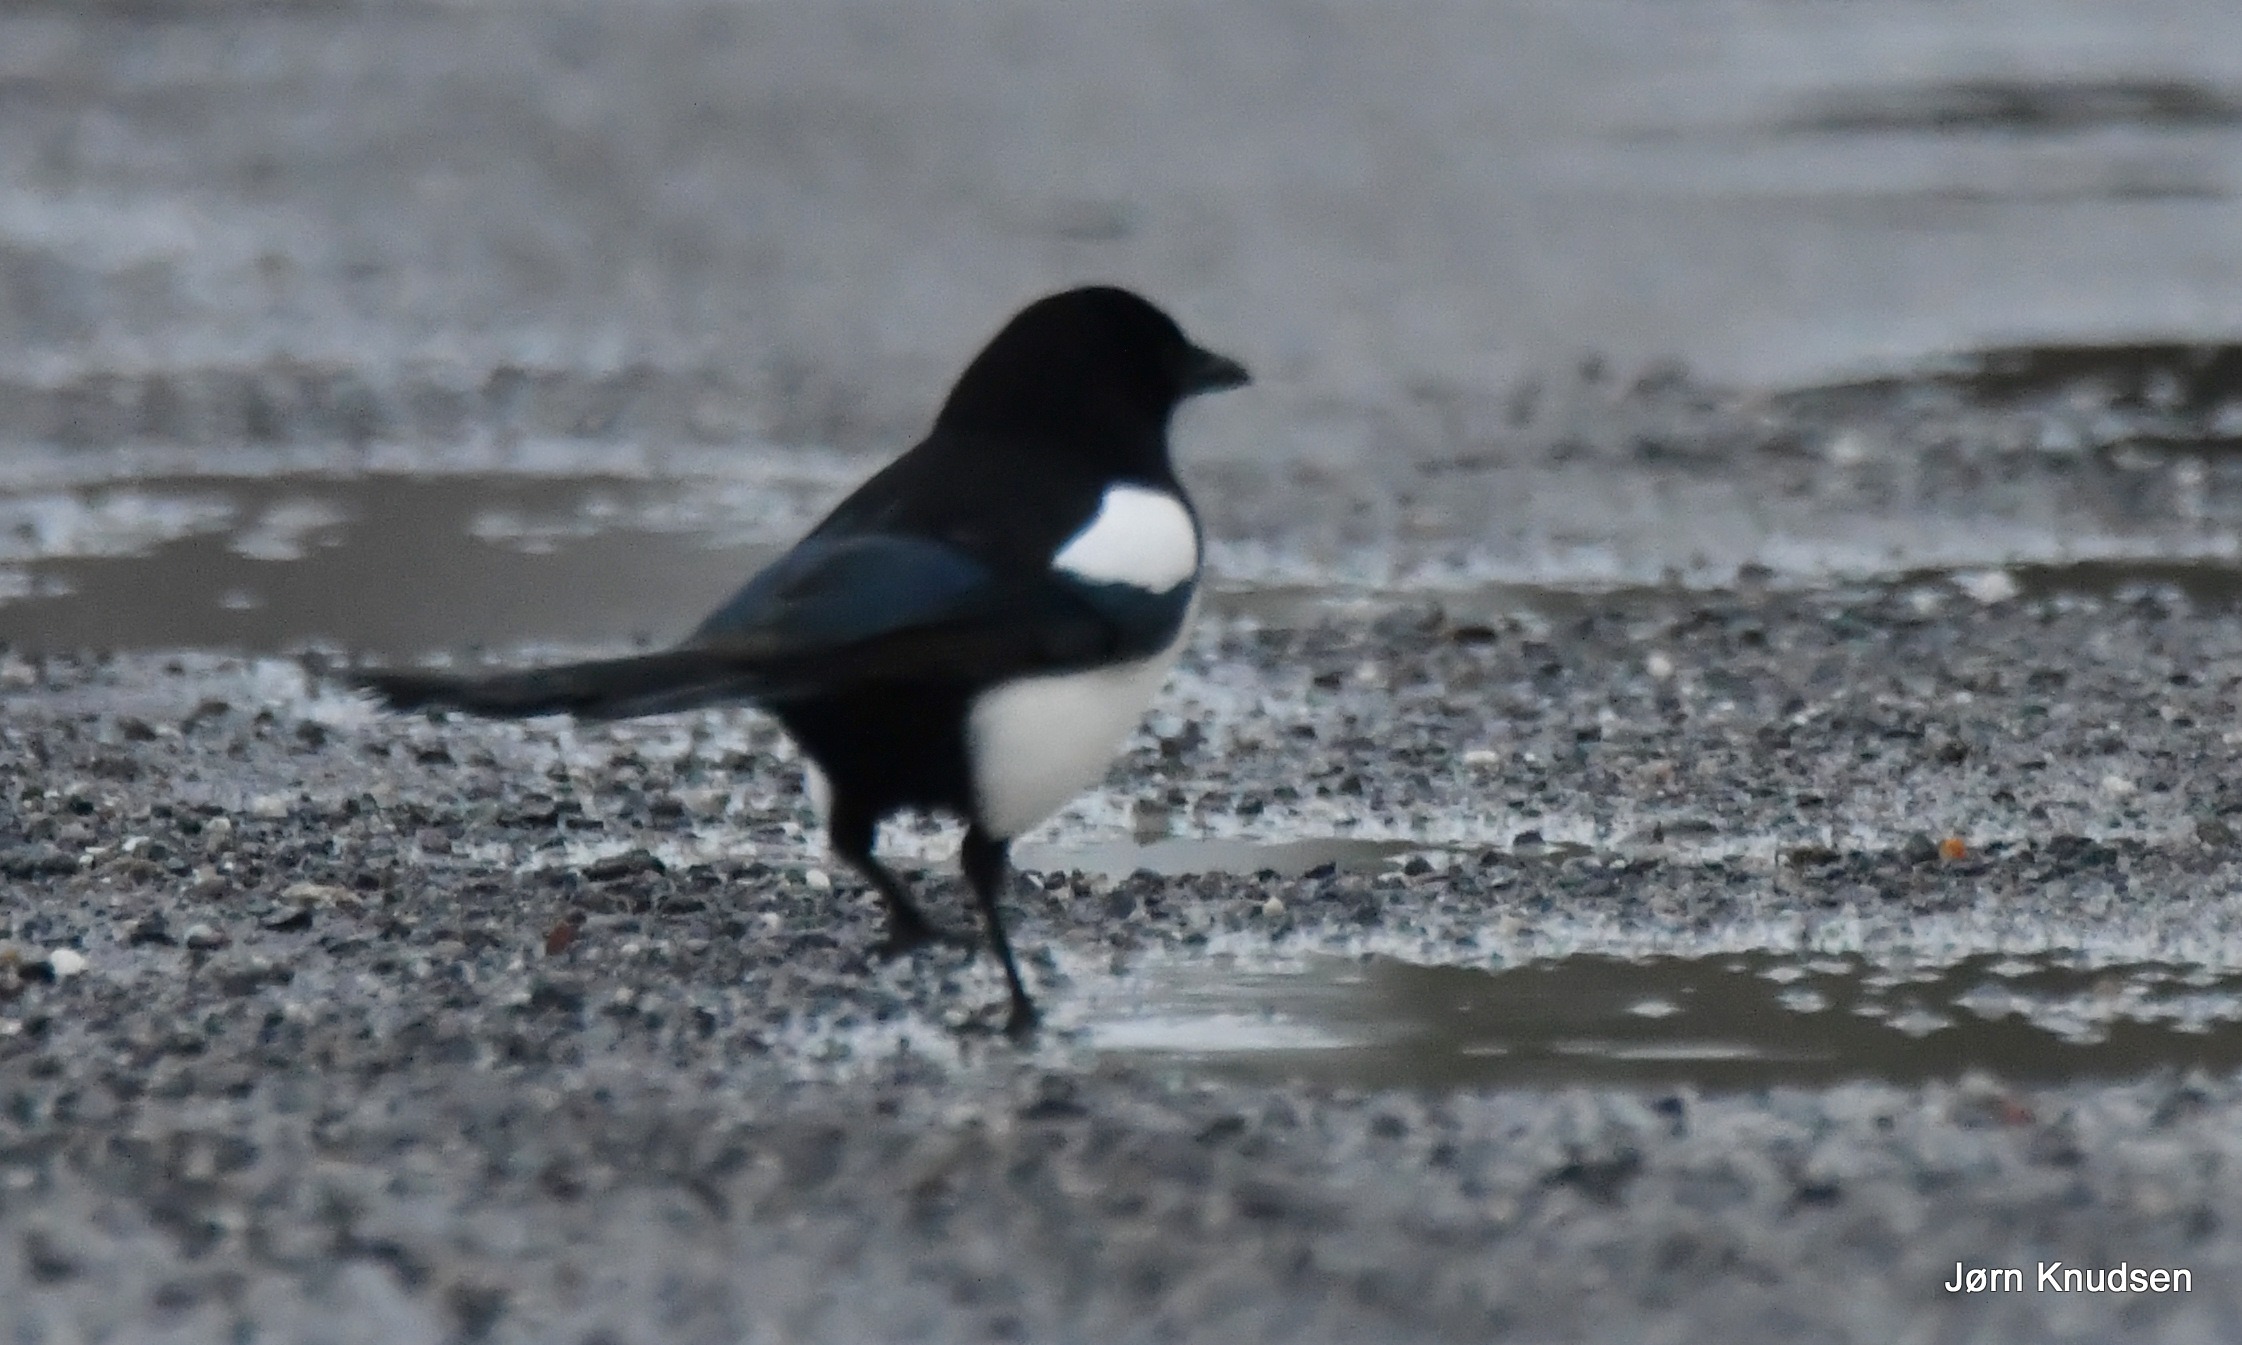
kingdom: Animalia
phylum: Chordata
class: Aves
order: Passeriformes
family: Corvidae
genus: Pica
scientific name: Pica pica
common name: Husskade
